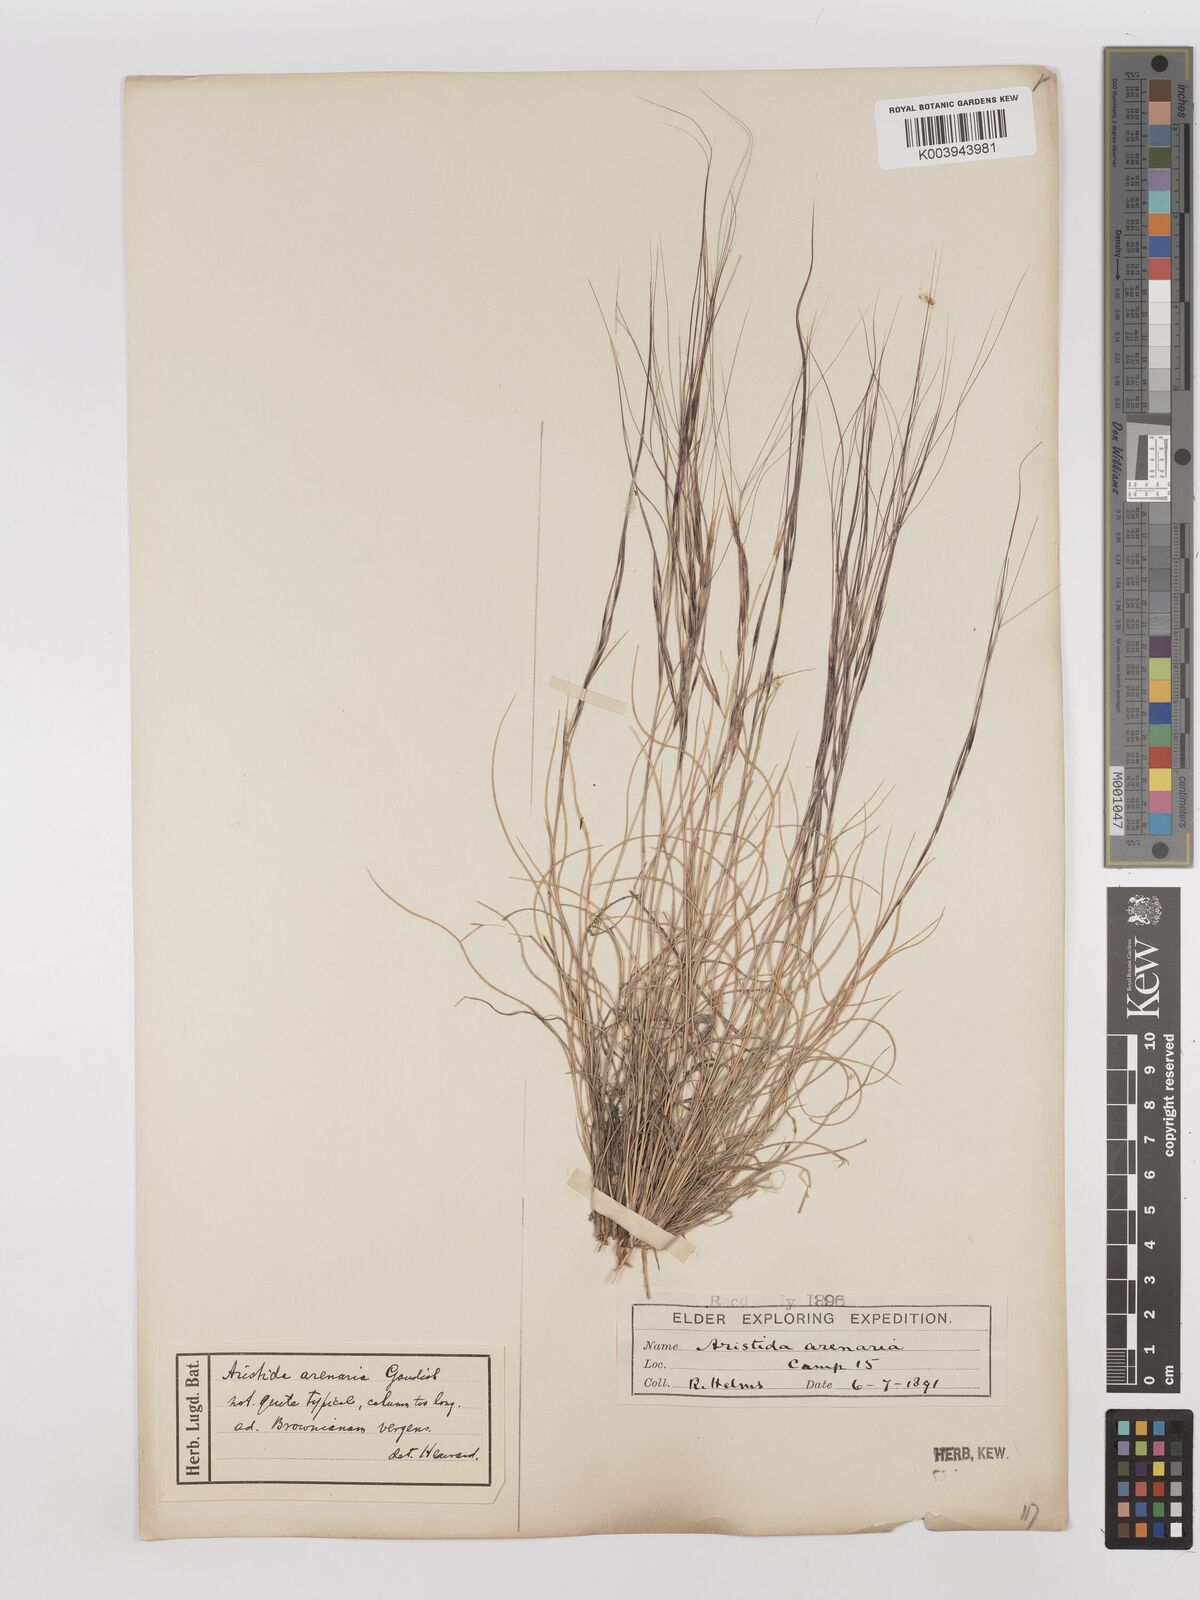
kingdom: Plantae
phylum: Tracheophyta
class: Liliopsida
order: Poales
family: Poaceae
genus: Aristida
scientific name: Aristida contorta
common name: Bunch kerosene grass
